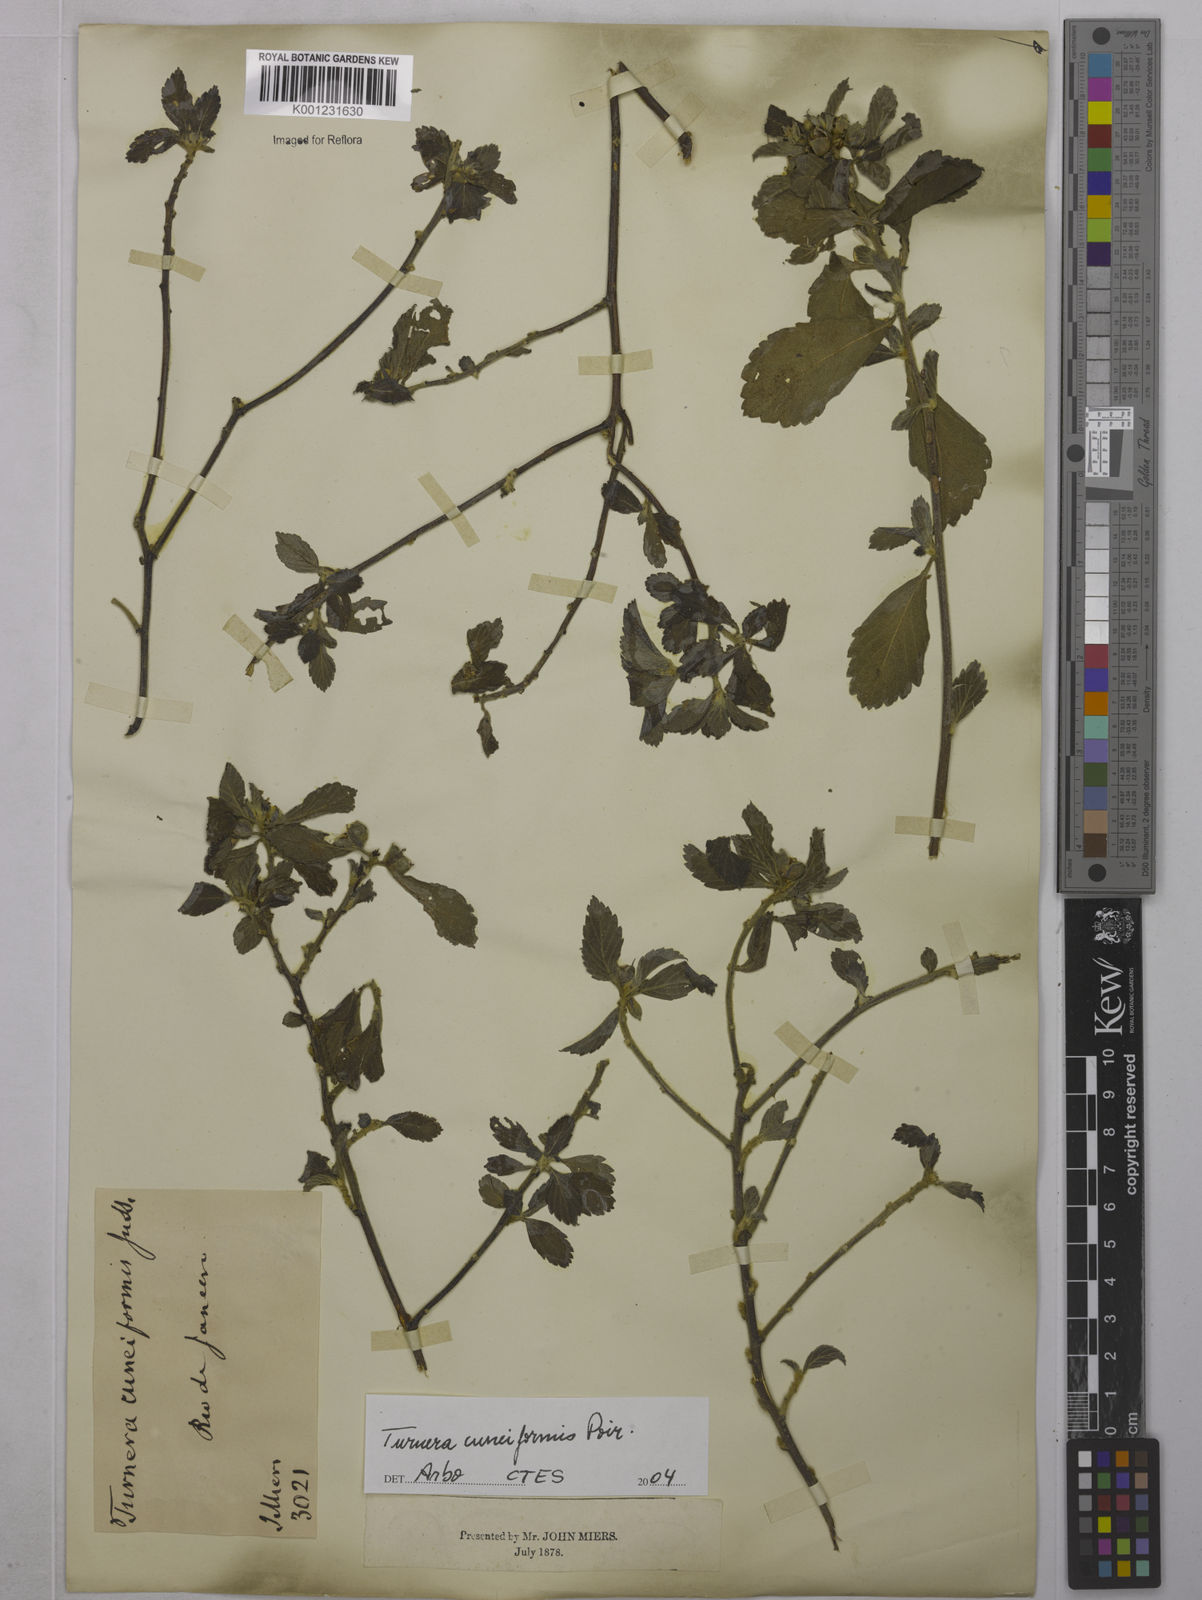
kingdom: Plantae
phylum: Tracheophyta
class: Magnoliopsida
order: Malpighiales
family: Turneraceae
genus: Turnera
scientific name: Turnera cuneiformis
